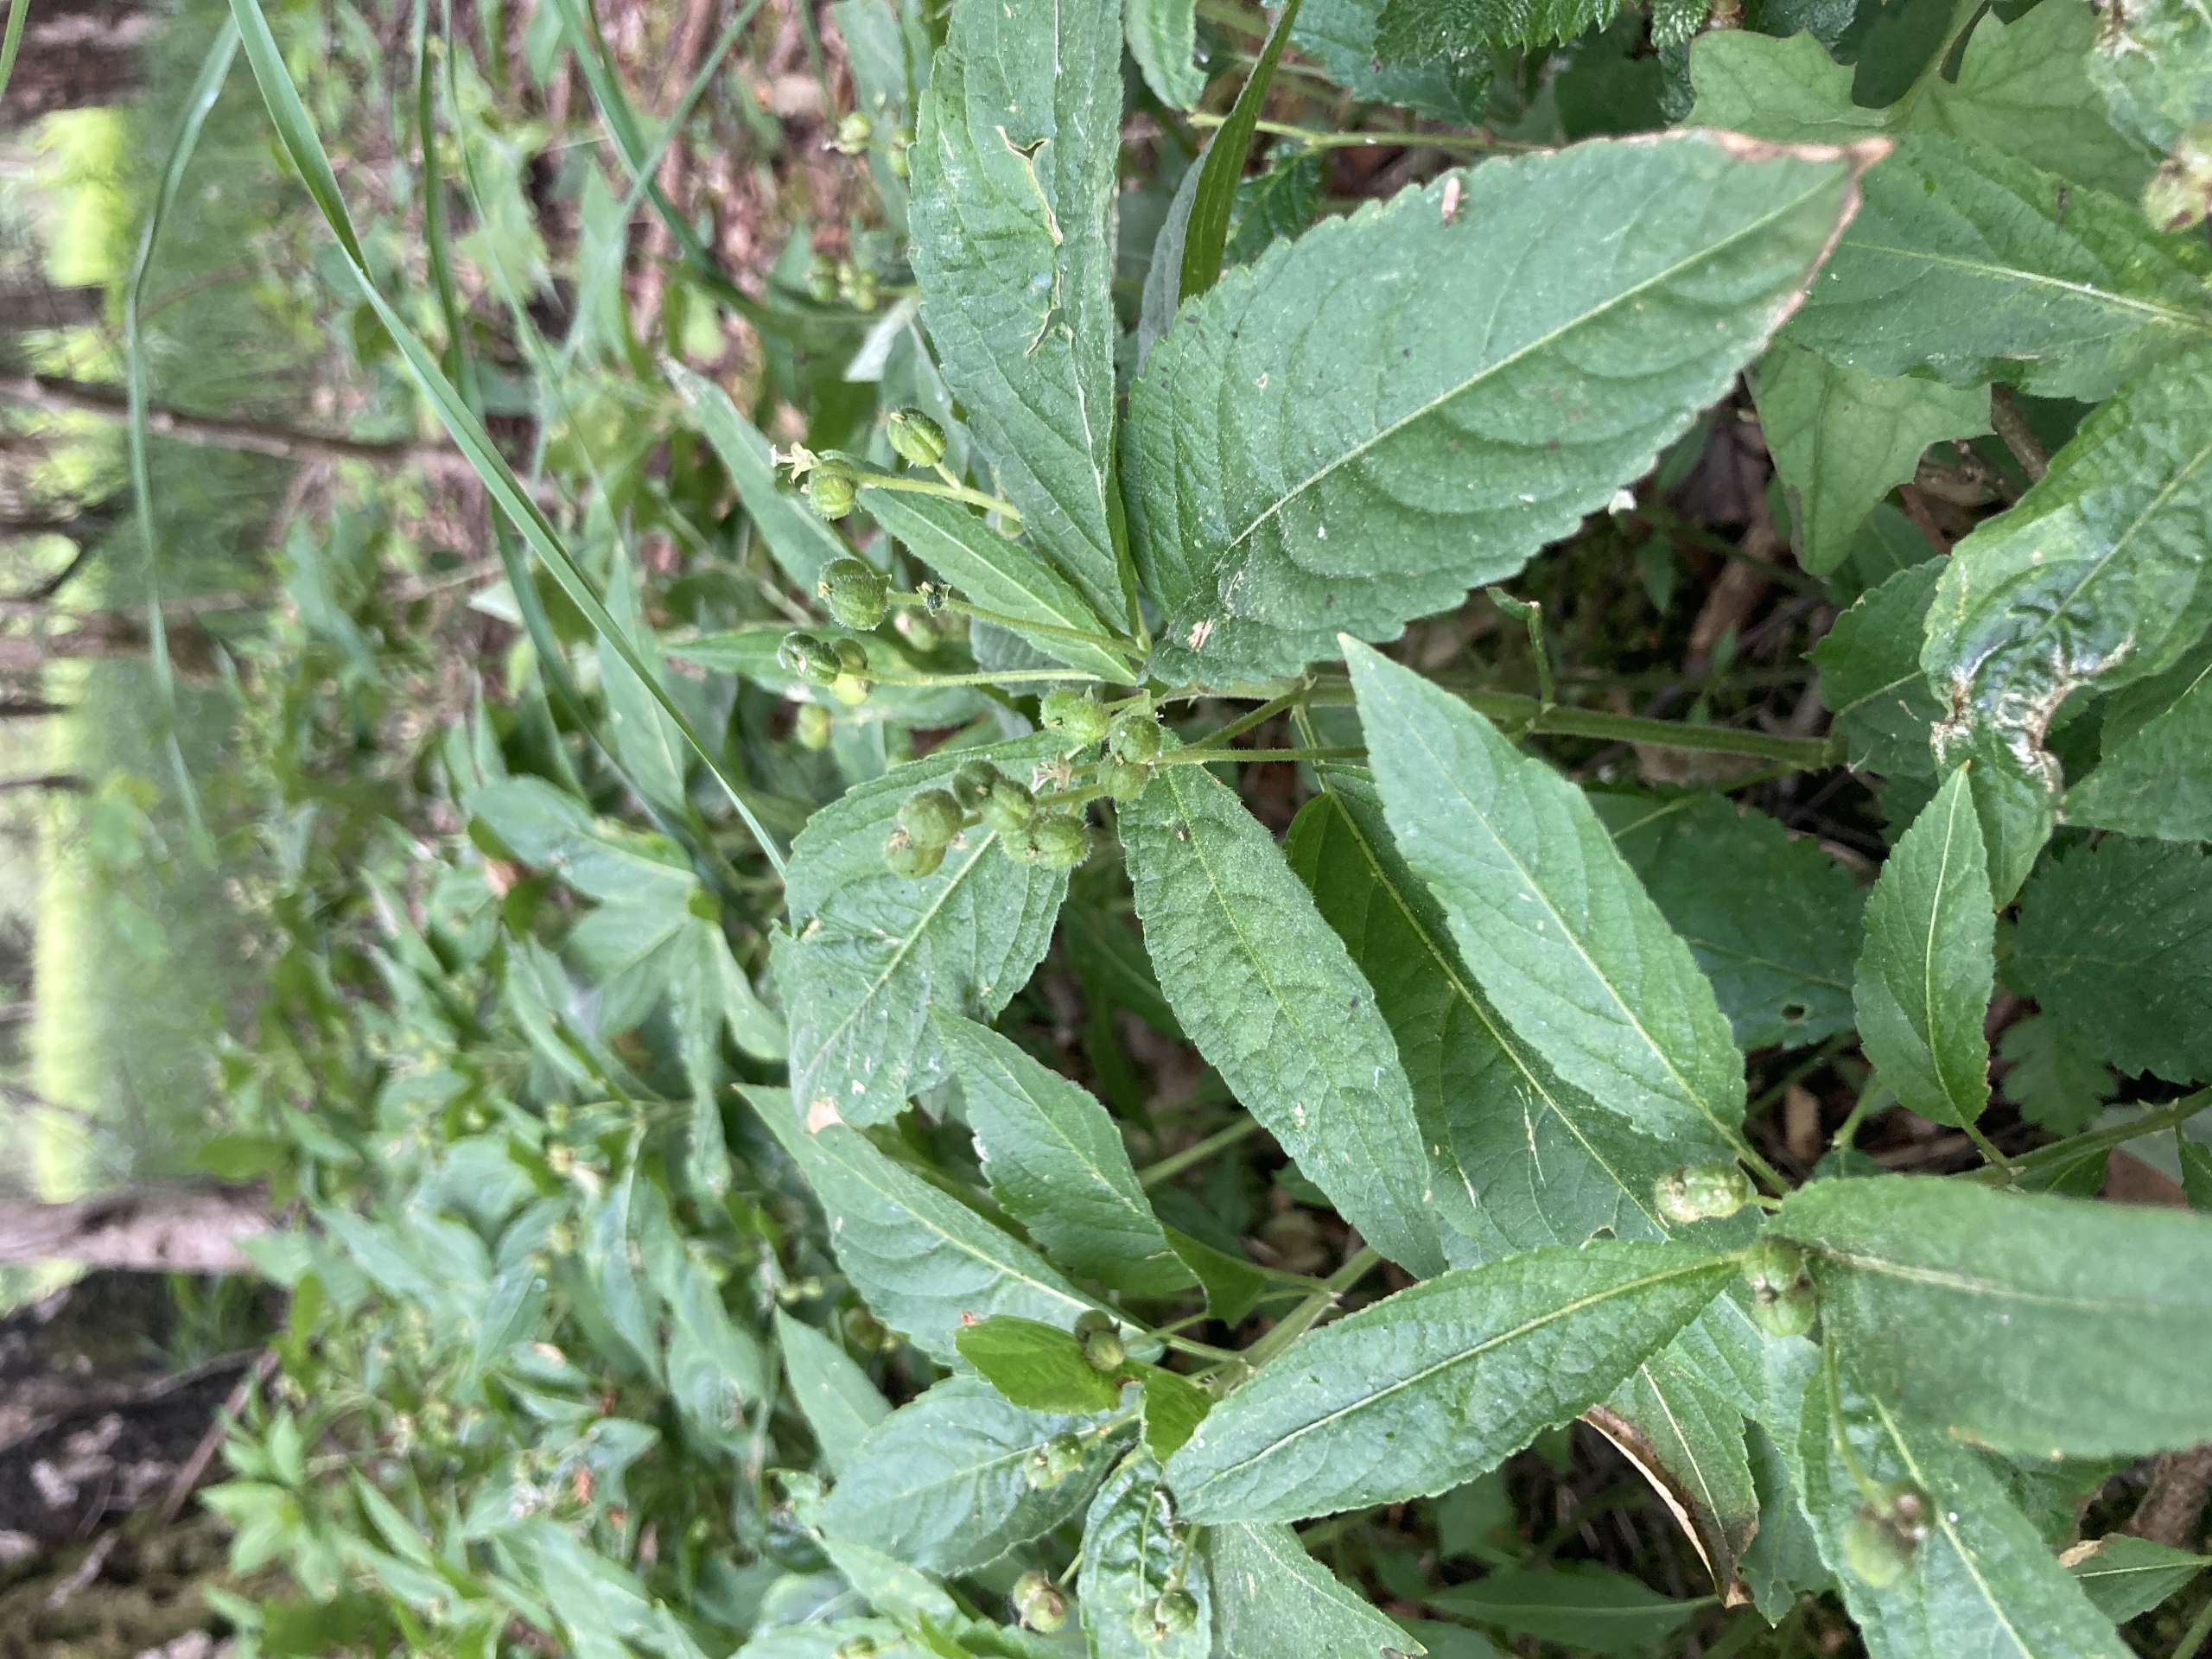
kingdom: Plantae
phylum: Tracheophyta
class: Magnoliopsida
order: Malpighiales
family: Euphorbiaceae
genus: Mercurialis
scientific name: Mercurialis perennis
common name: Almindelig bingelurt
